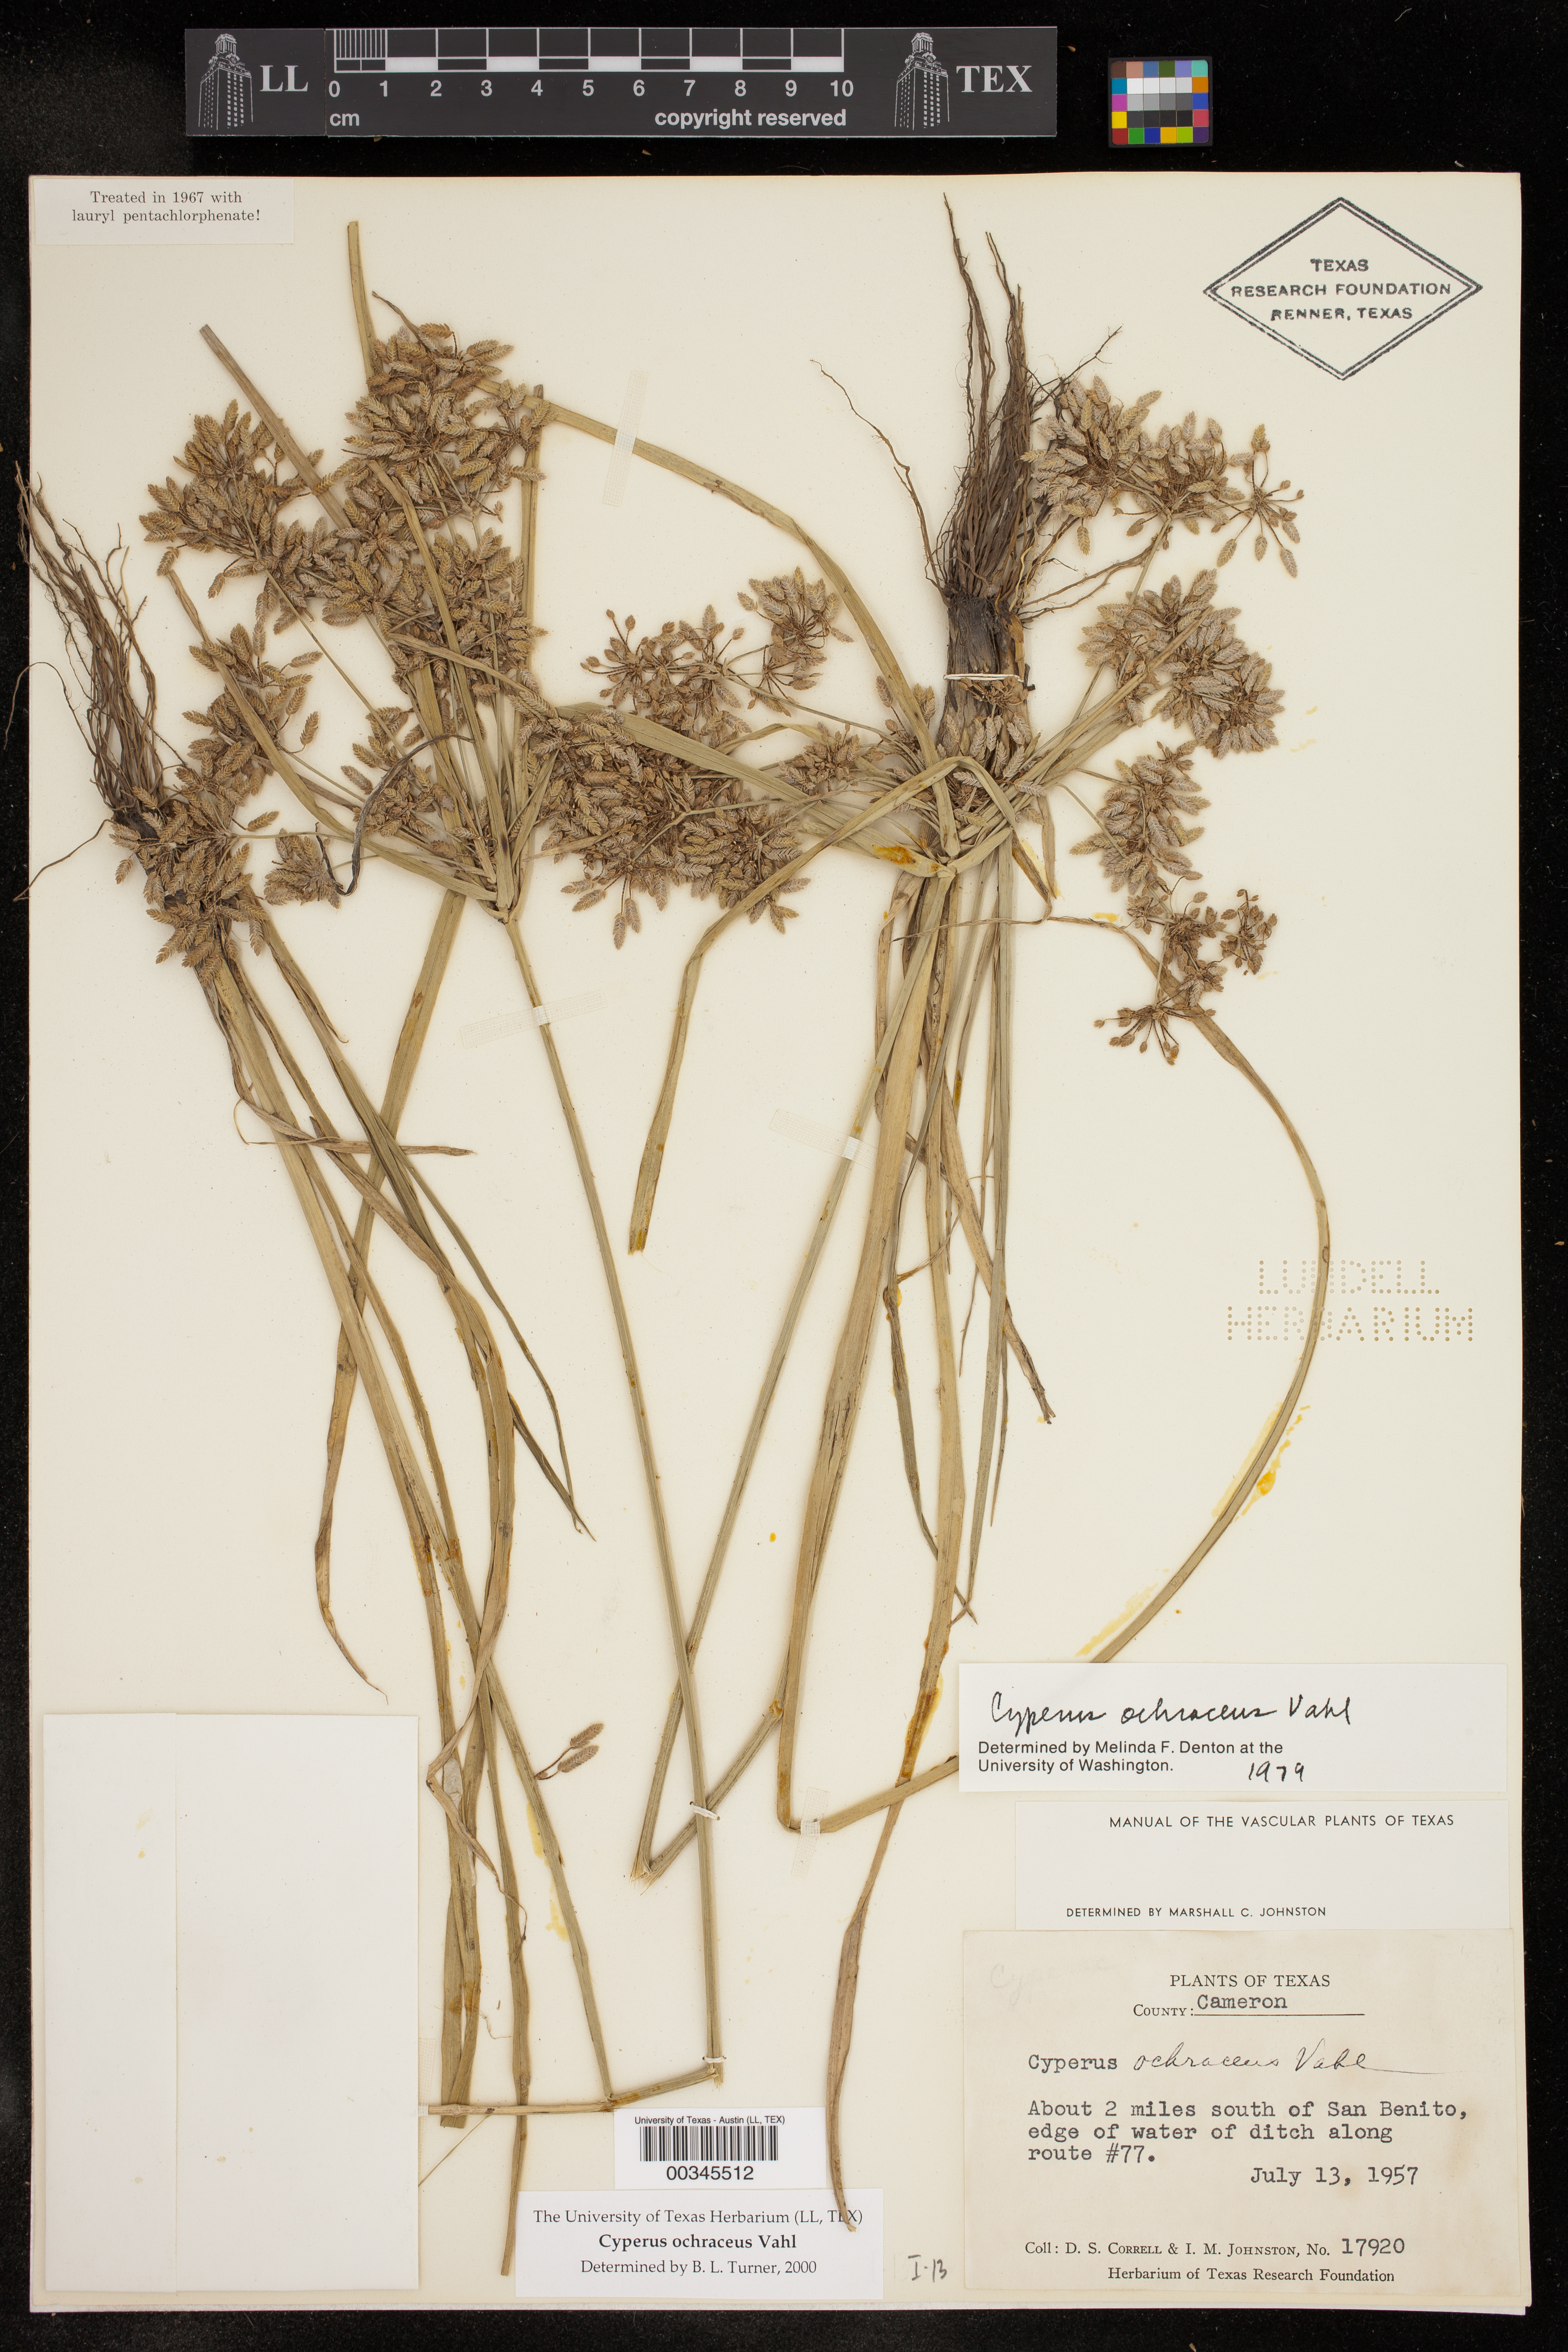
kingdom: Plantae
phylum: Tracheophyta
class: Liliopsida
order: Poales
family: Cyperaceae
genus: Cyperus
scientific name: Cyperus ochraceus
